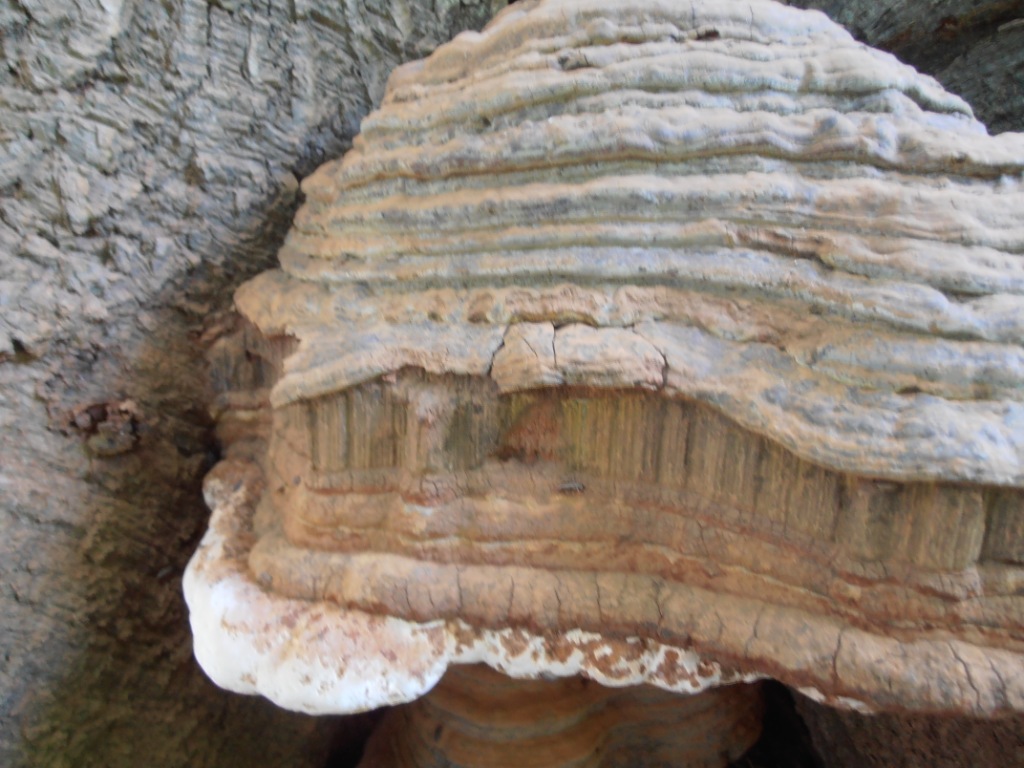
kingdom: Fungi
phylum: Basidiomycota
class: Agaricomycetes
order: Polyporales
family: Polyporaceae
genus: Ganoderma
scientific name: Ganoderma pfeifferi
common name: kobberrød lakporesvamp
